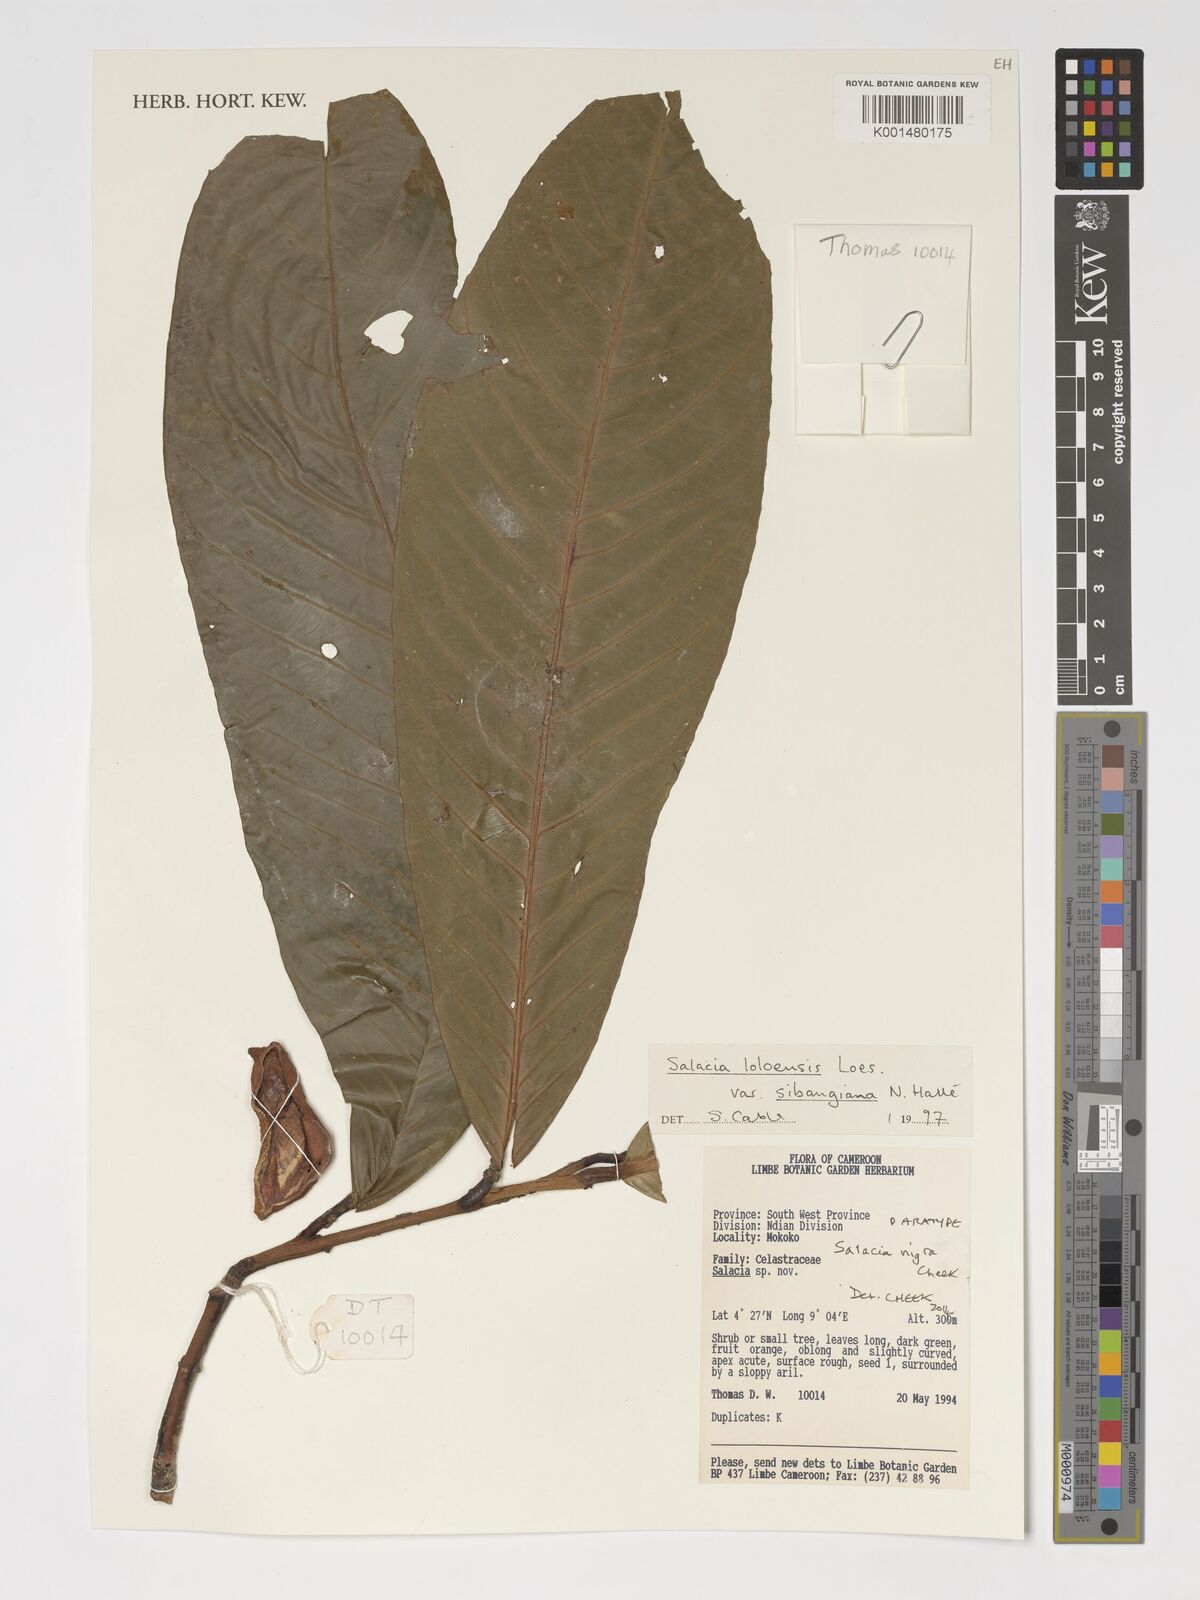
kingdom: Plantae
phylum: Tracheophyta
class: Magnoliopsida
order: Celastrales
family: Celastraceae
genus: Salacia
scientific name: Salacia loloensis
